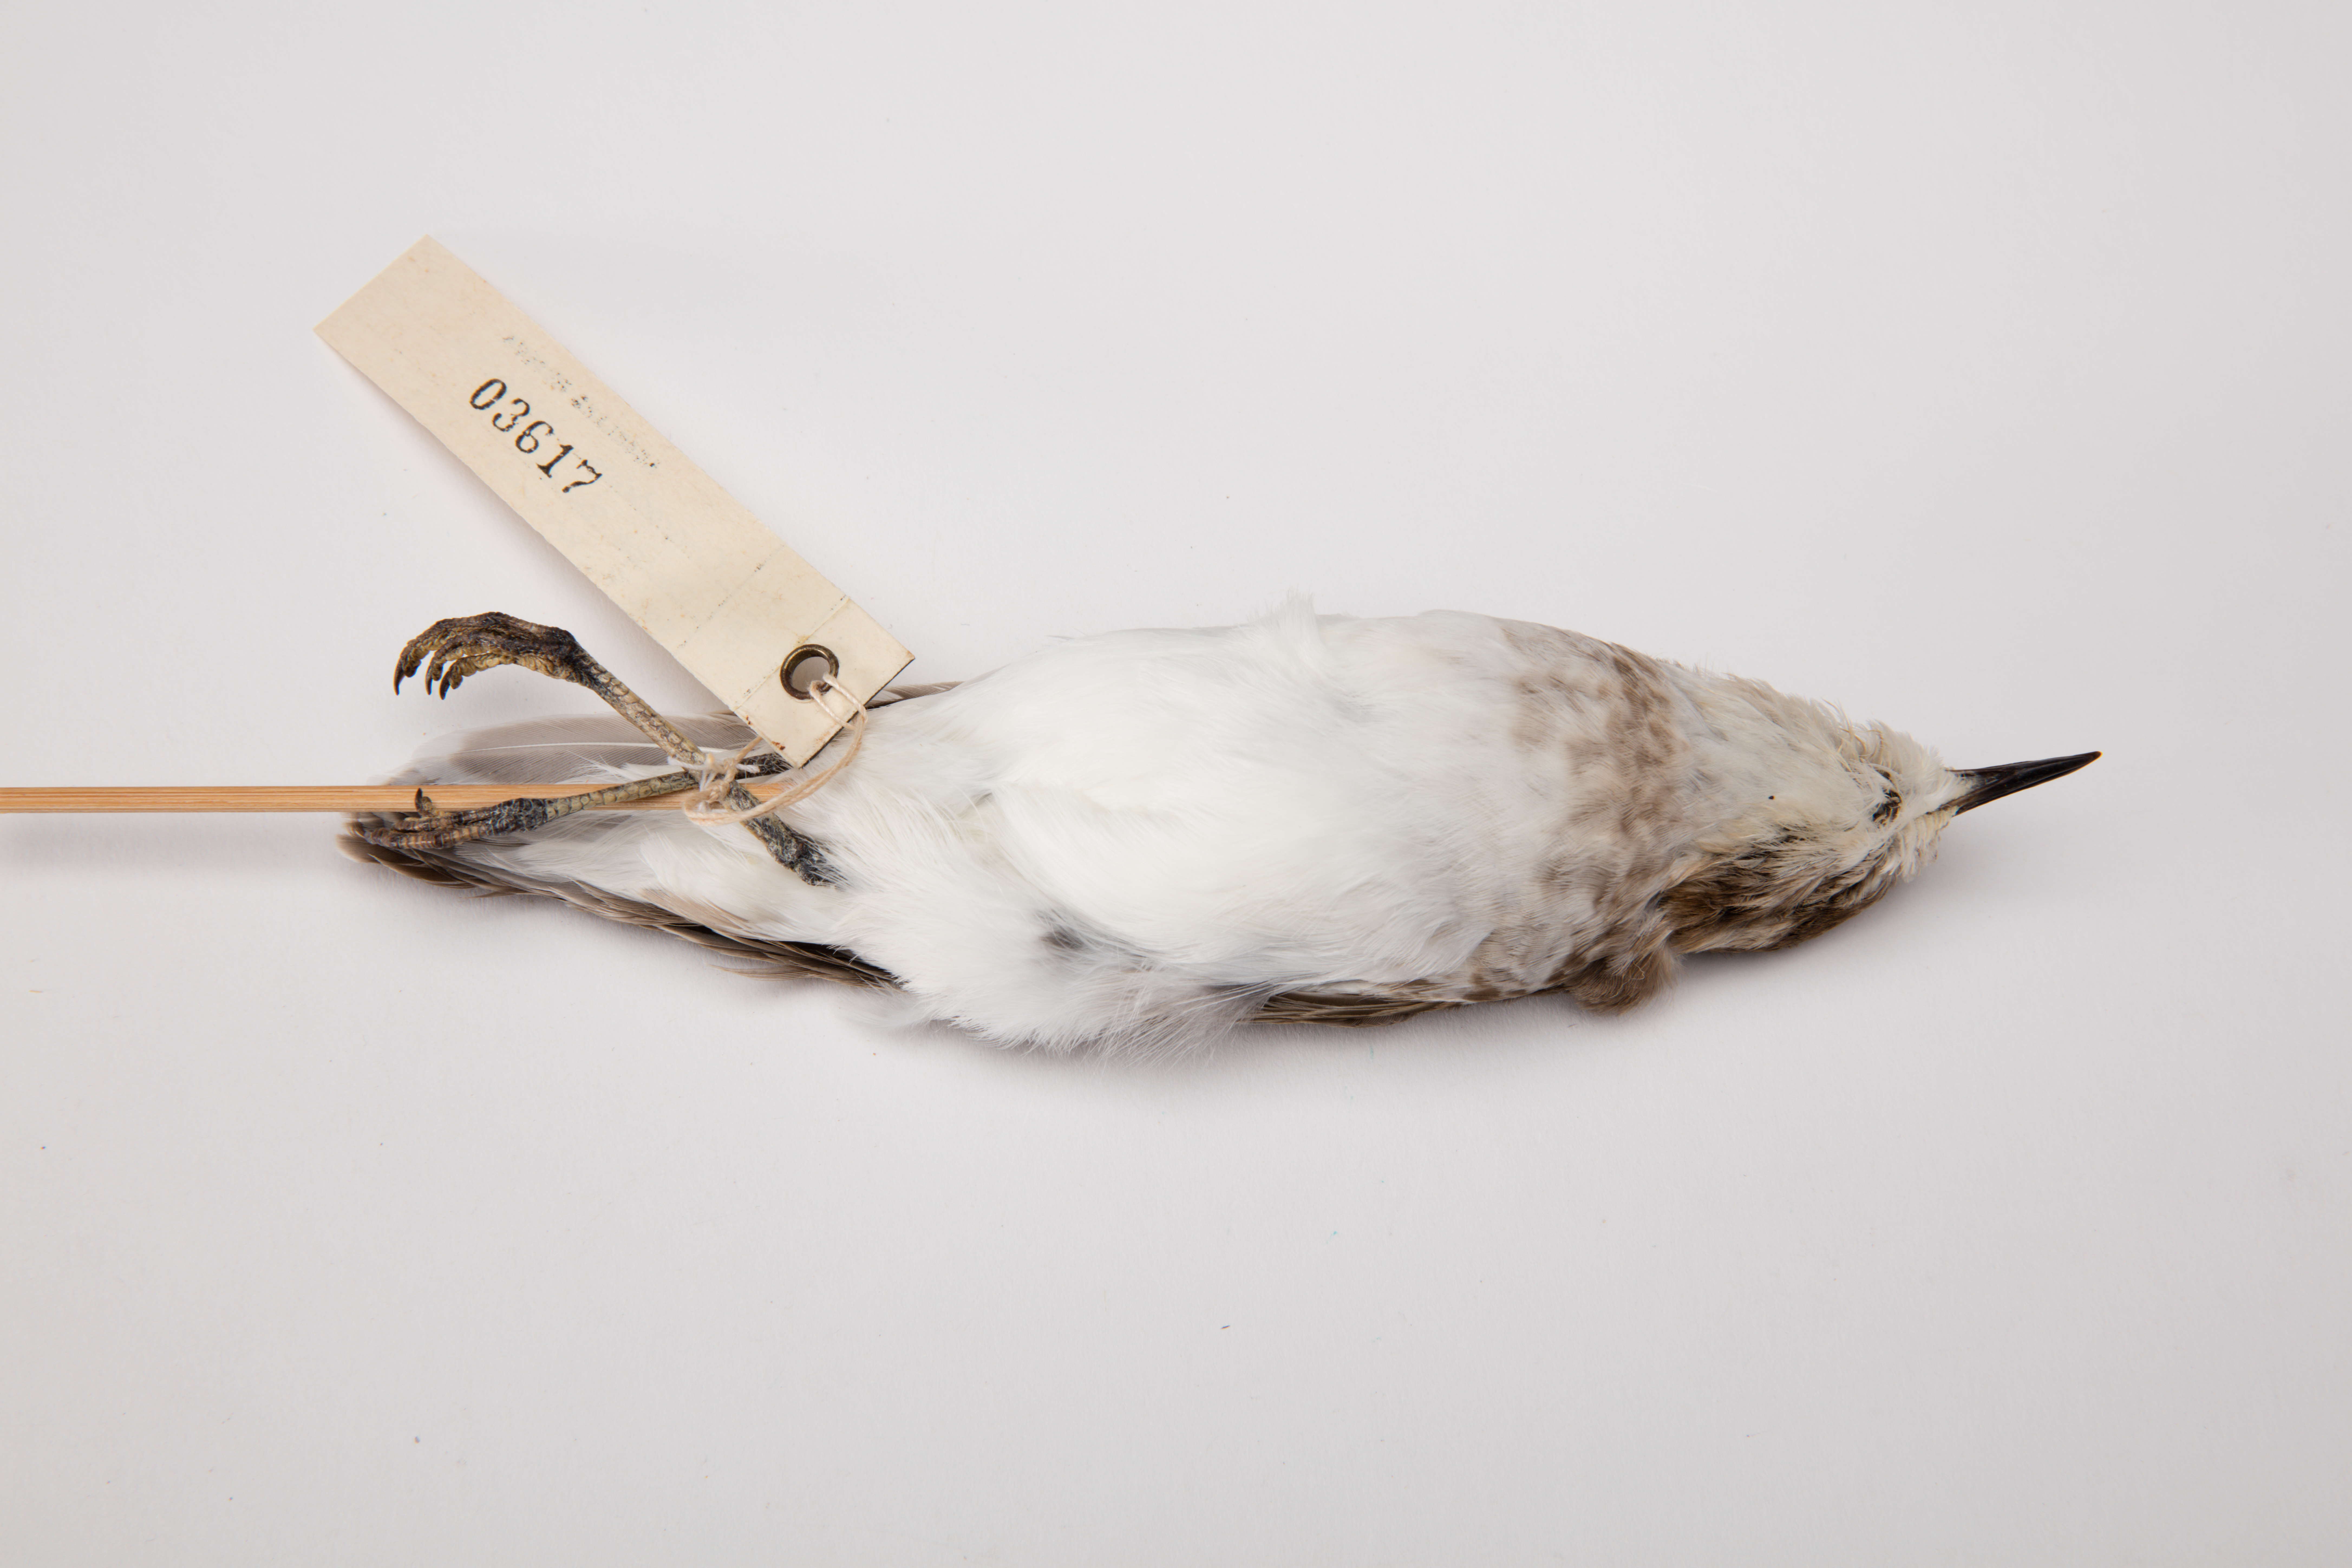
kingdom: Animalia
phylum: Chordata
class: Aves
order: Charadriiformes
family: Charadriidae
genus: Charadrius
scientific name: Charadrius bicinctus
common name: Double-banded plover
